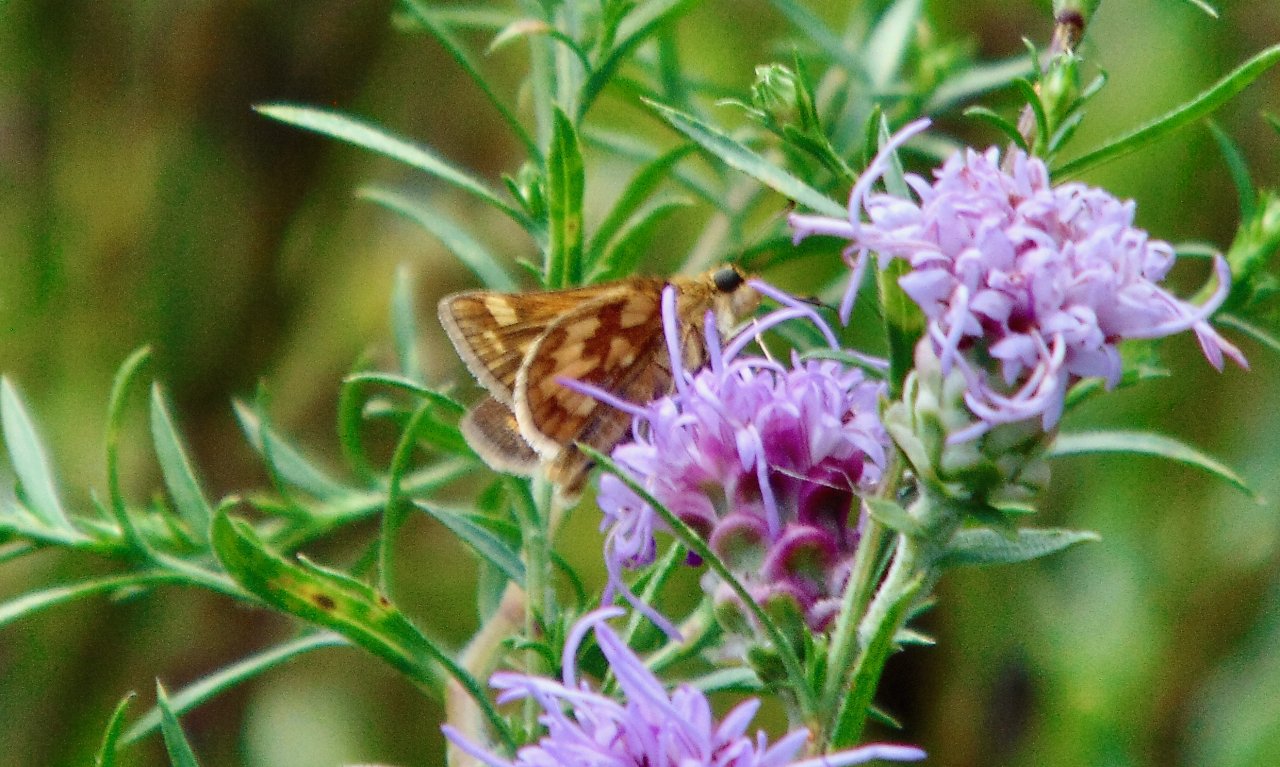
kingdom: Animalia
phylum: Arthropoda
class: Insecta
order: Lepidoptera
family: Hesperiidae
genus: Polites
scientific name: Polites coras
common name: Peck's Skipper
